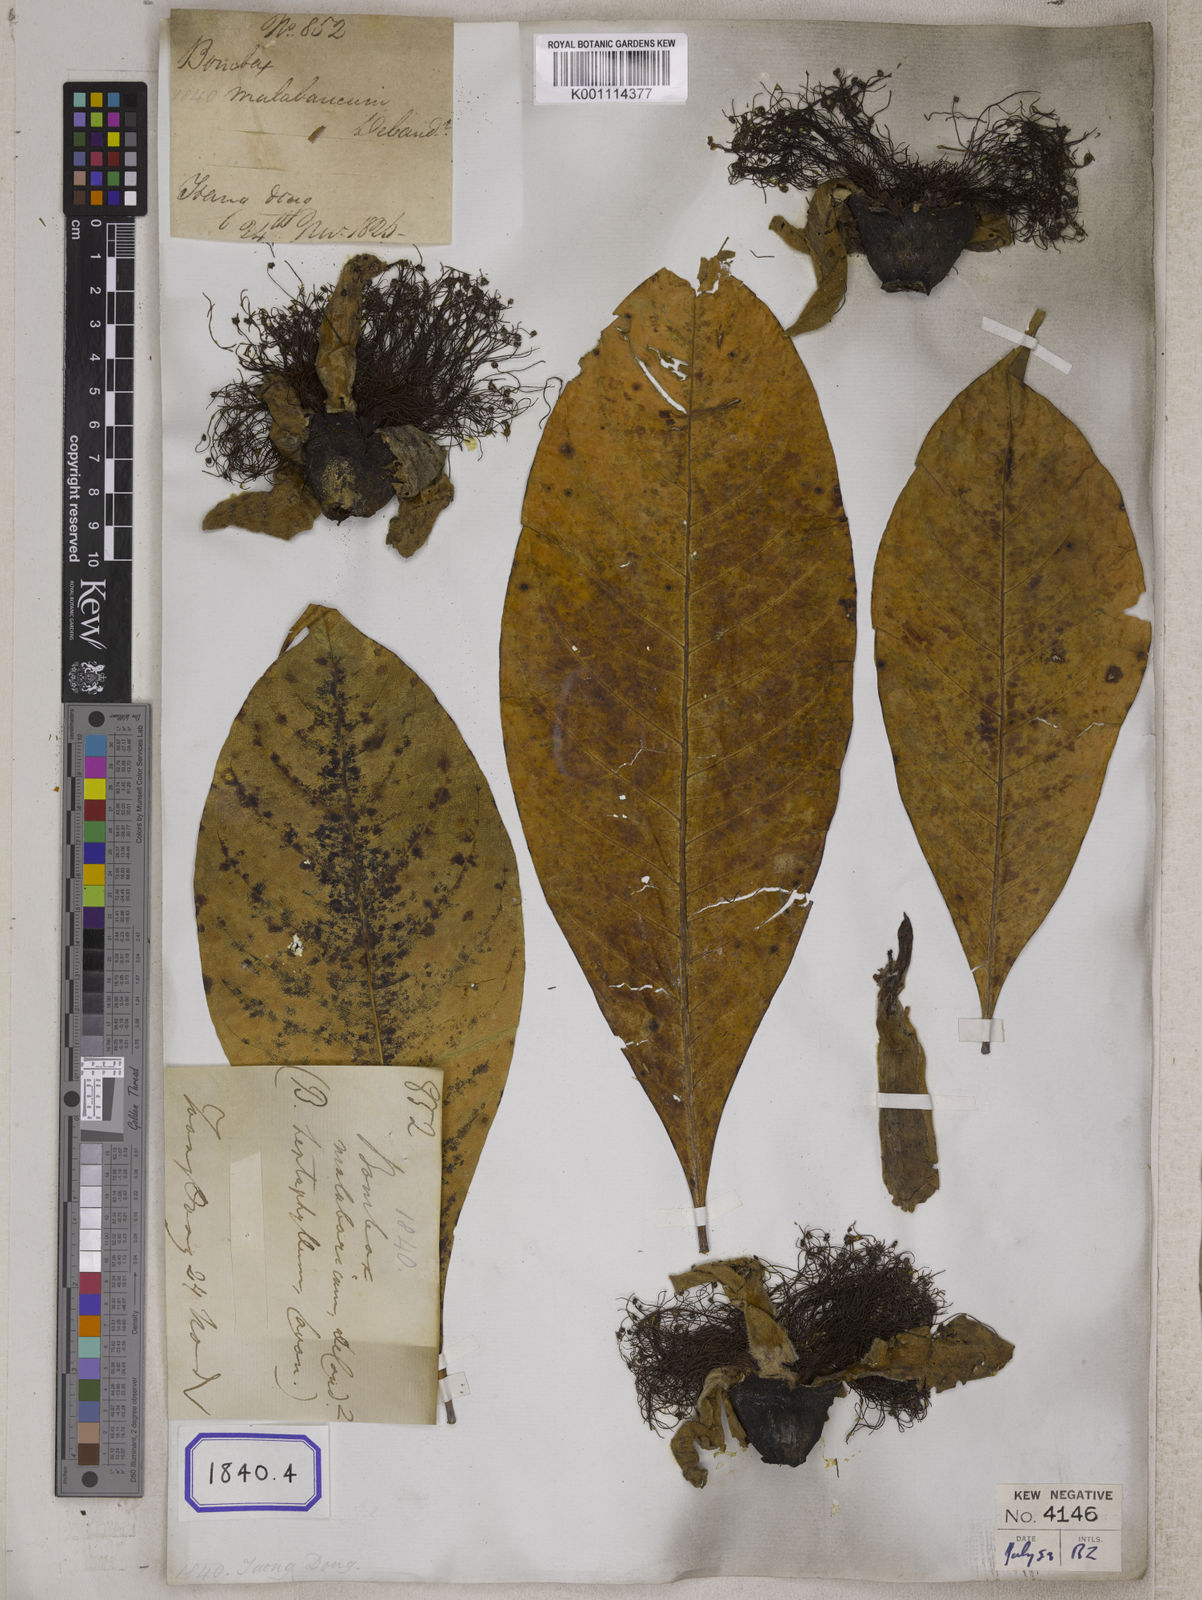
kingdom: Plantae
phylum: Tracheophyta
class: Magnoliopsida
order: Malvales
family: Malvaceae
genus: Bombax
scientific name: Bombax
